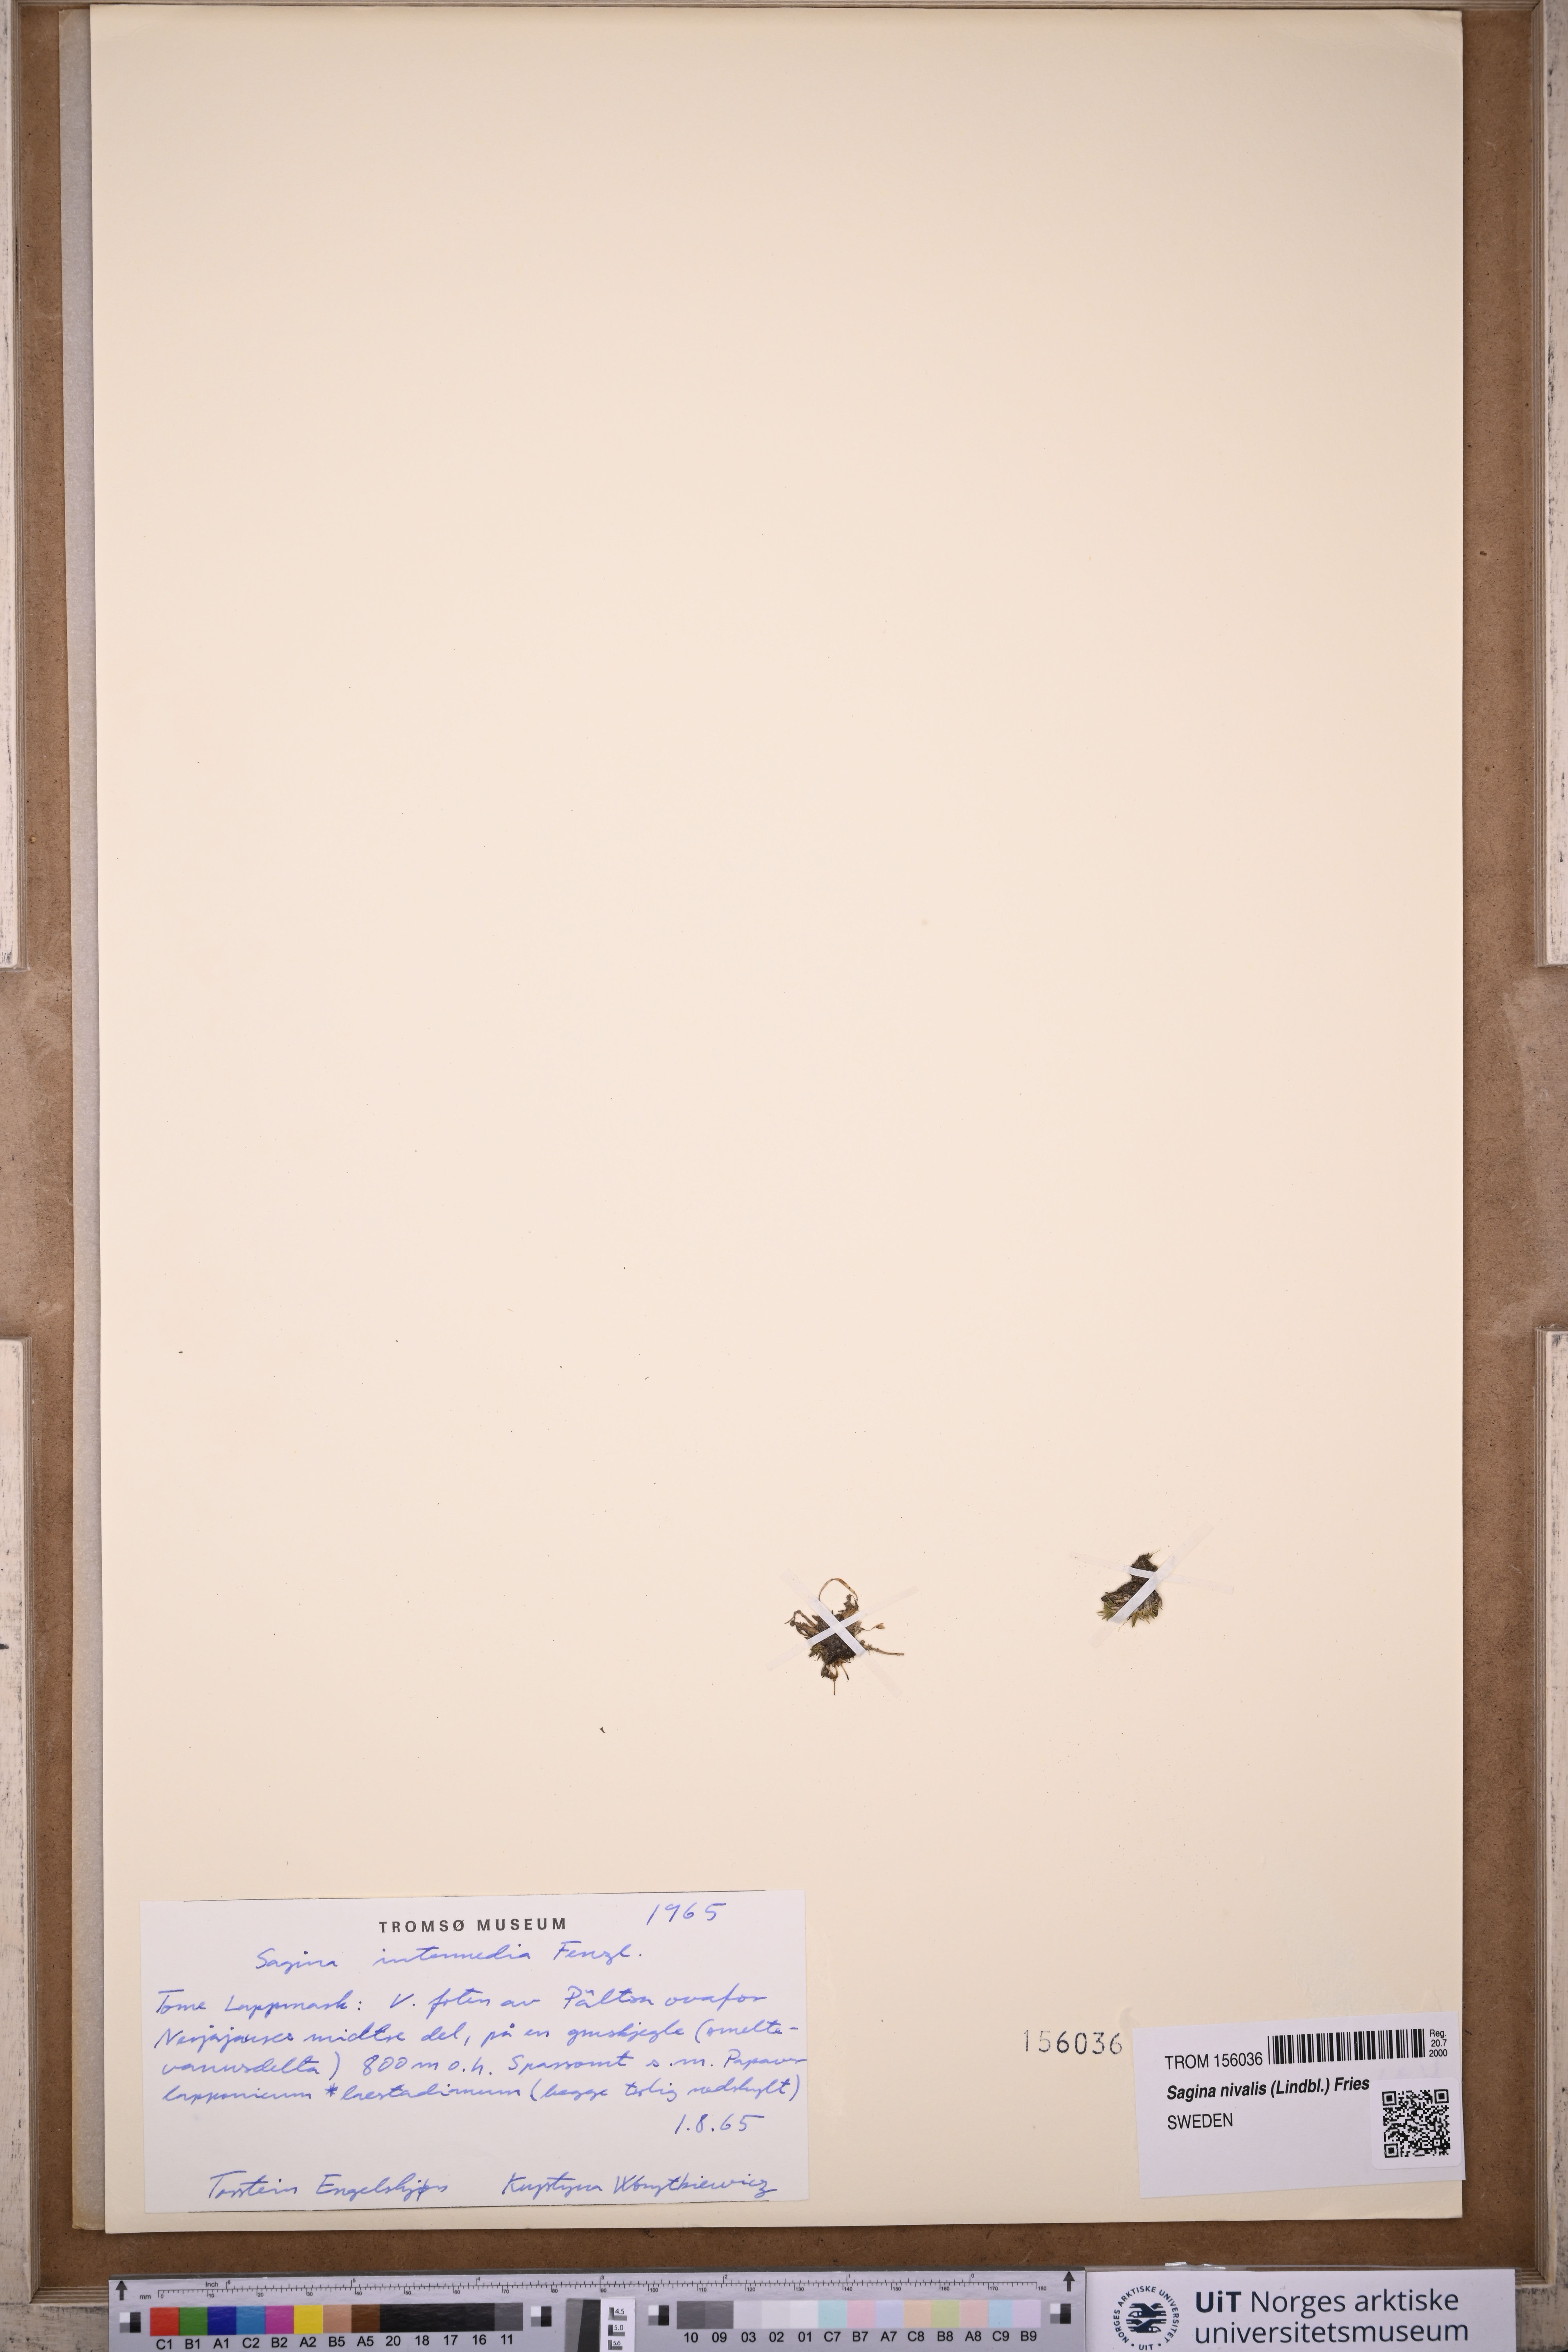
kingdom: Plantae
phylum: Tracheophyta
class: Magnoliopsida
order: Caryophyllales
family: Caryophyllaceae
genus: Sagina
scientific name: Sagina nivalis
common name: Snow pearlwort
